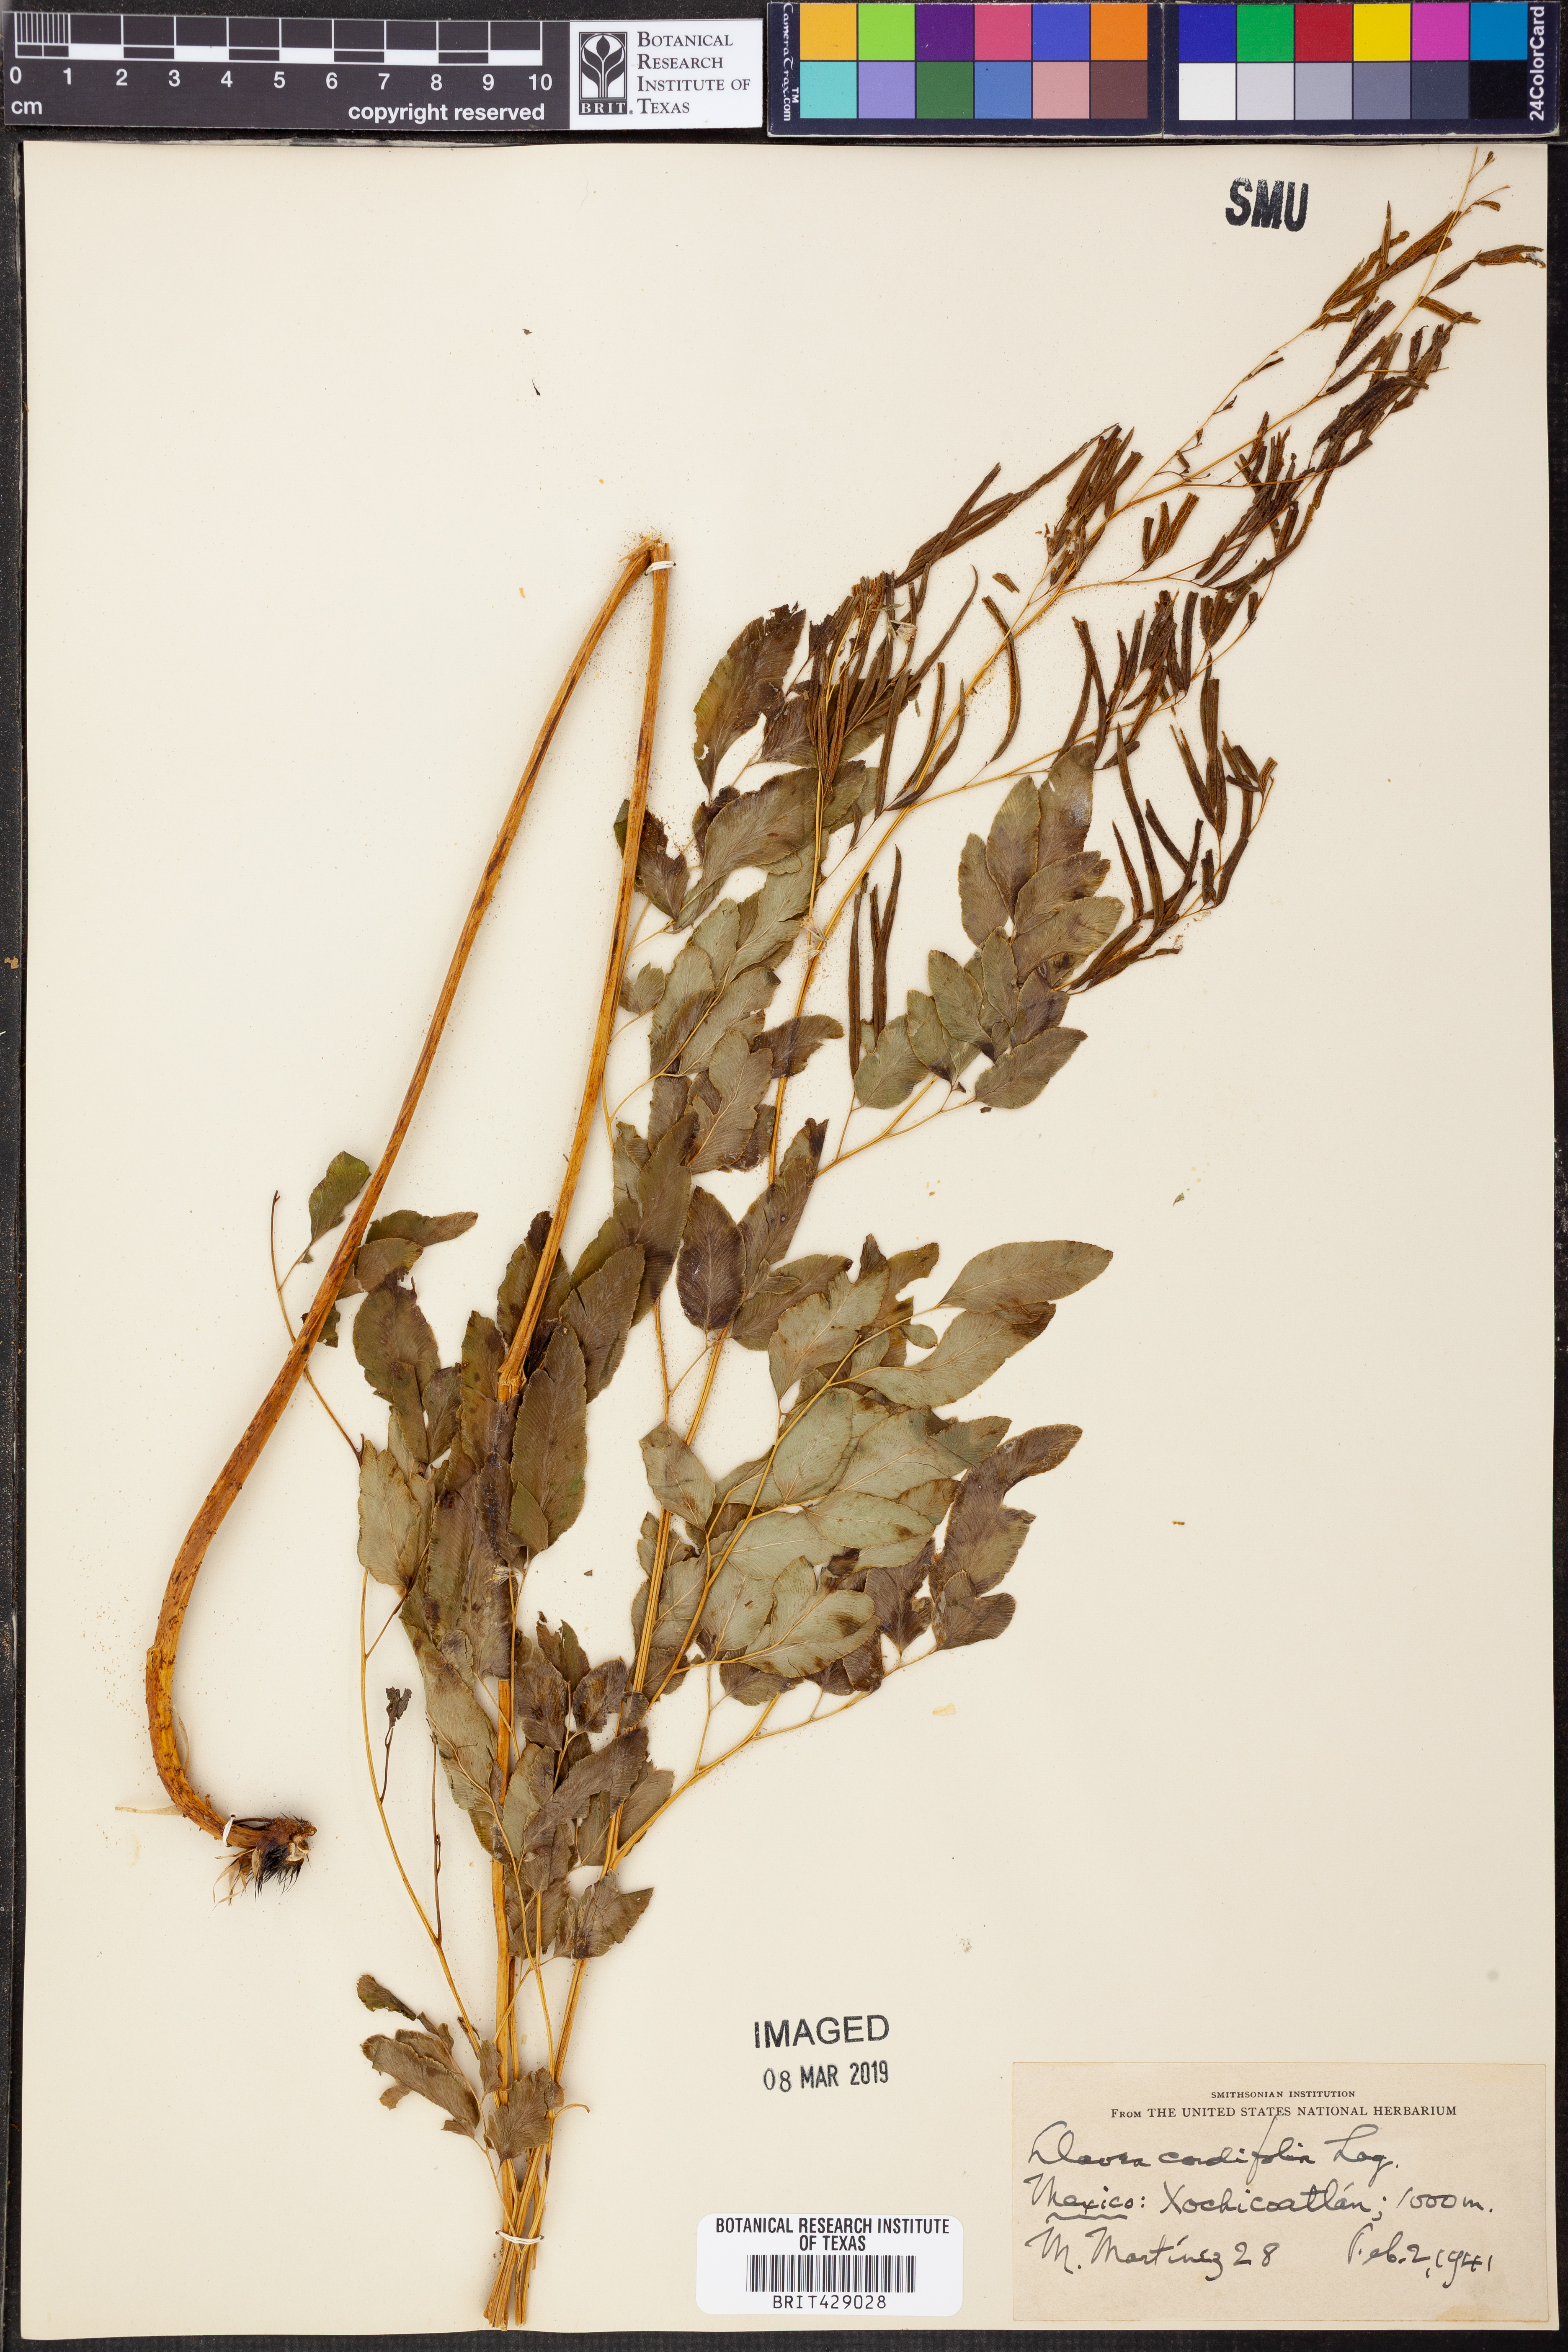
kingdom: Plantae
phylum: Tracheophyta
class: Polypodiopsida
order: Polypodiales
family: Aspleniaceae
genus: Asplenium
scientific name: Asplenium
